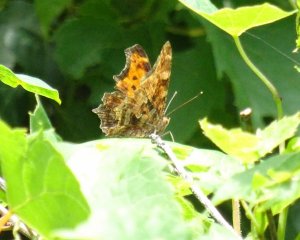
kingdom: Animalia
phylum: Arthropoda
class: Insecta
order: Lepidoptera
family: Nymphalidae
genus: Polygonia
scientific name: Polygonia comma
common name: Eastern Comma
